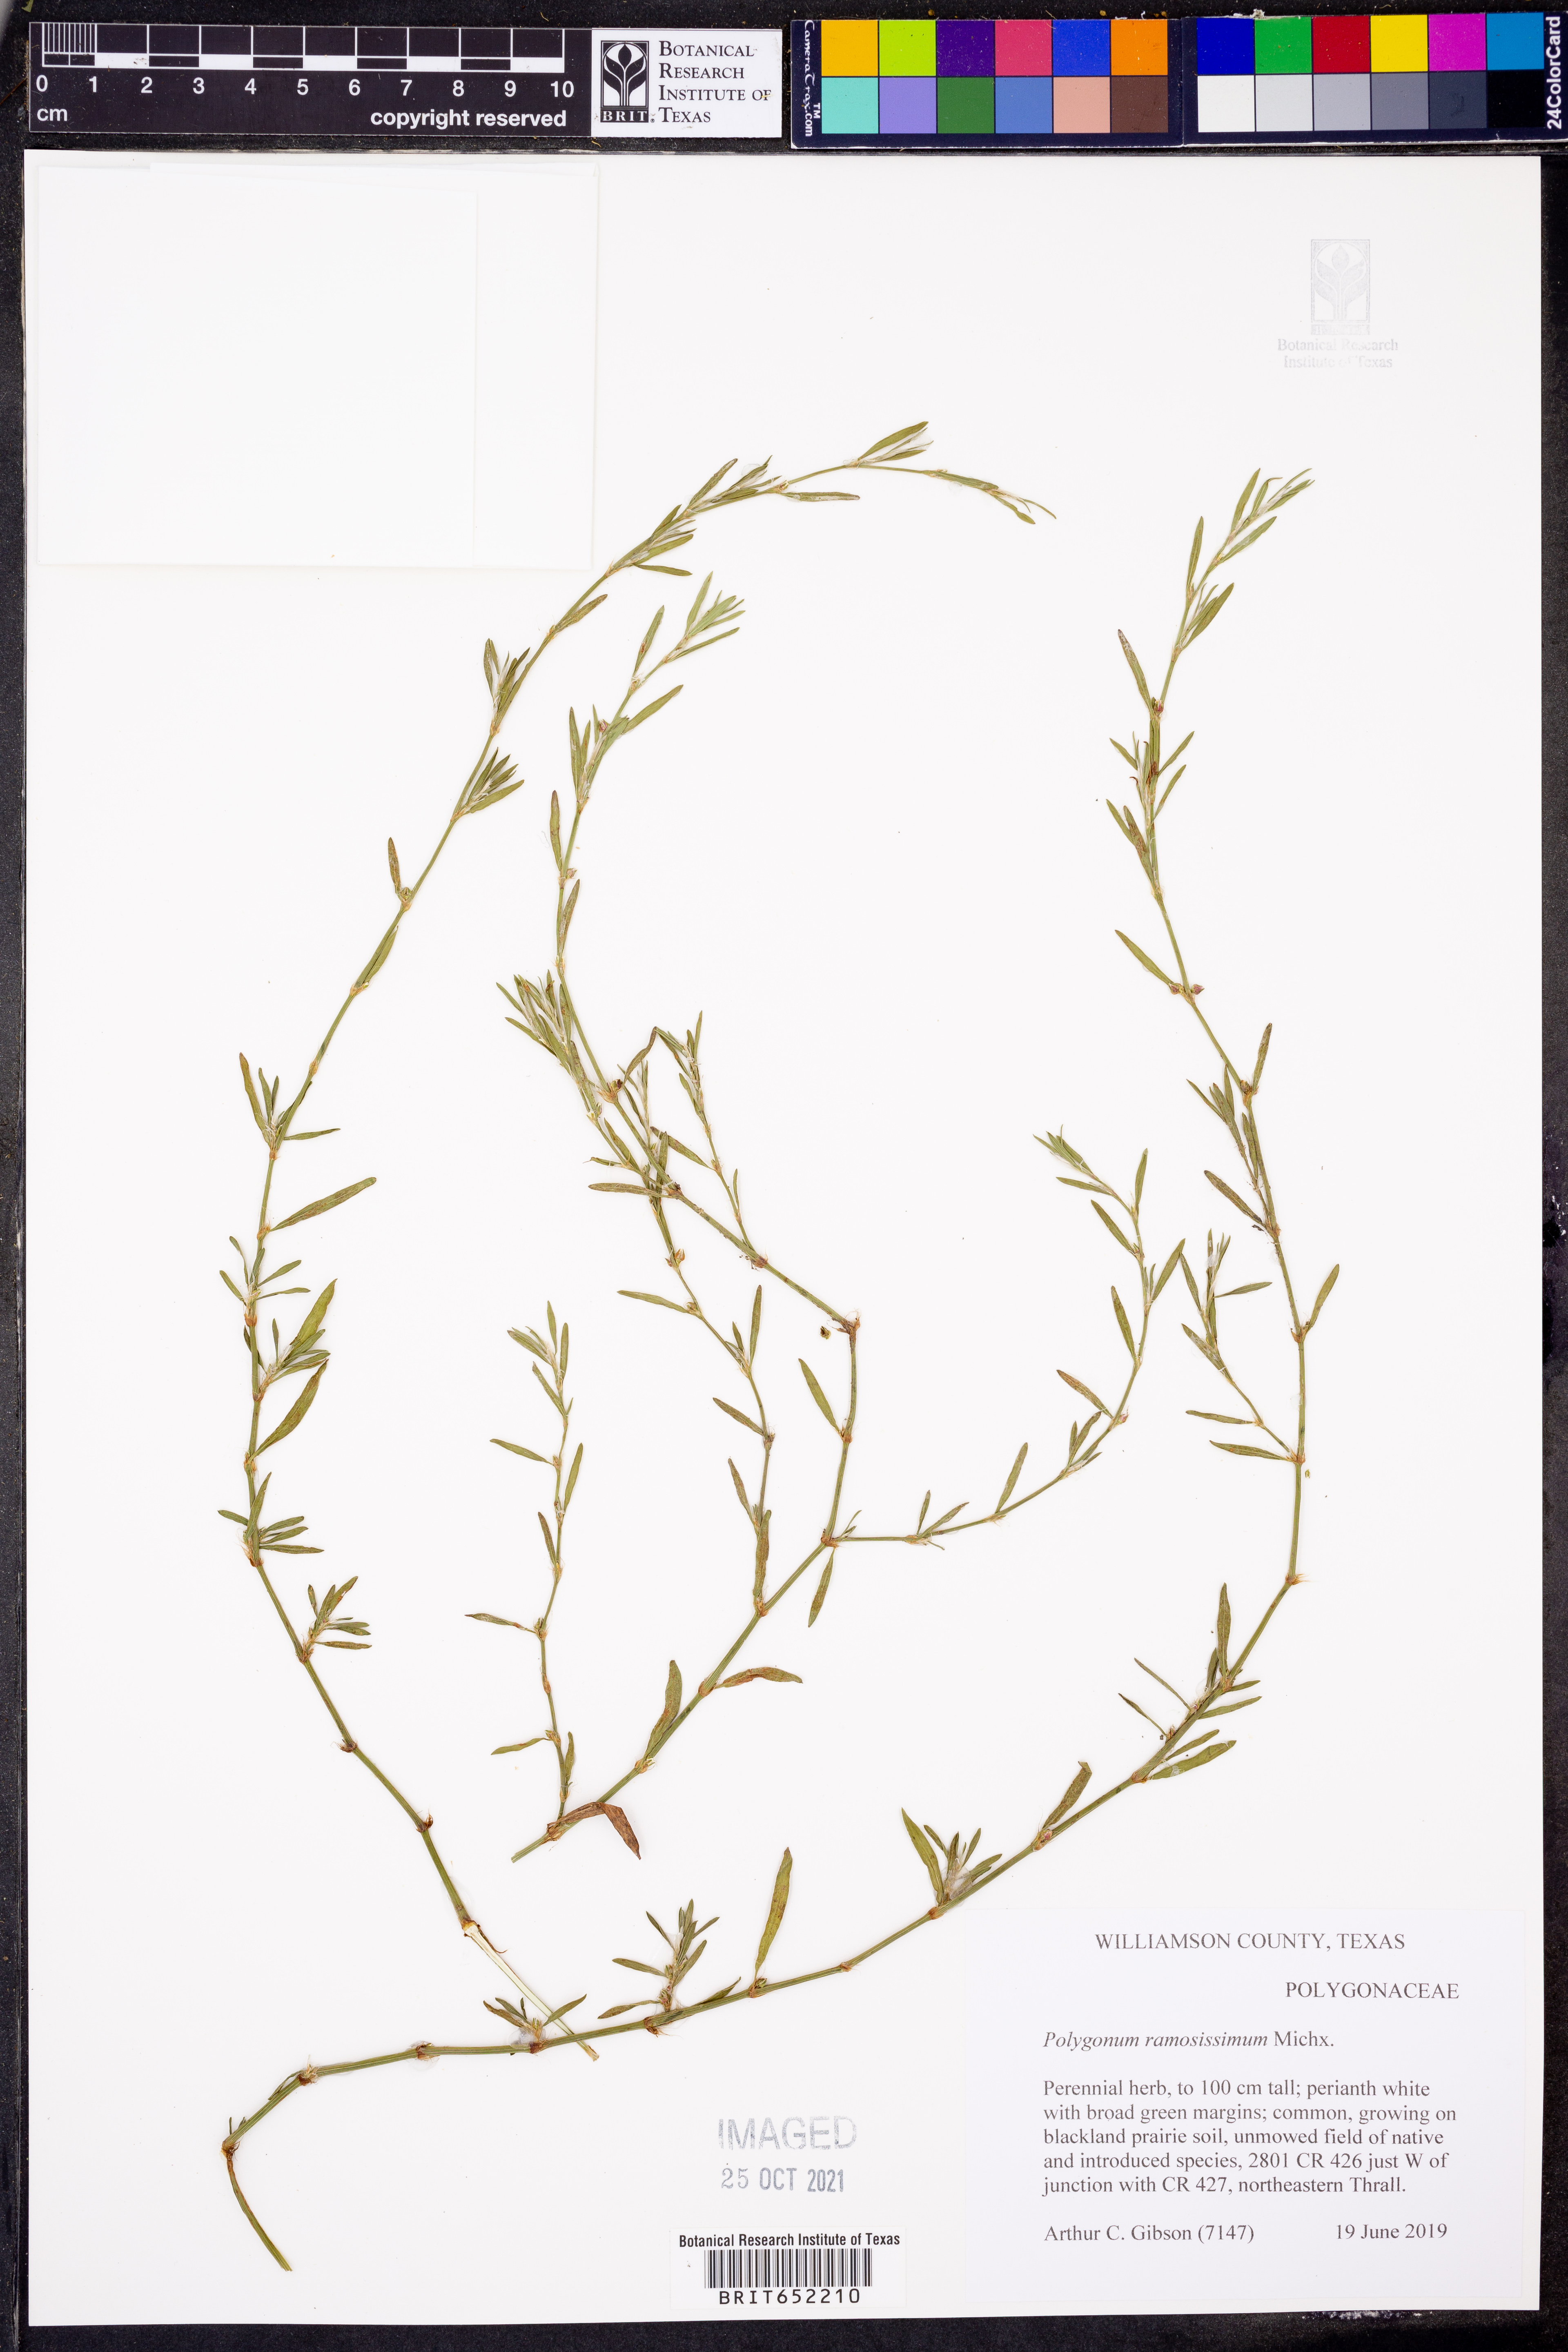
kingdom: Plantae
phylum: Tracheophyta
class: Magnoliopsida
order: Caryophyllales
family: Polygonaceae
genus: Polygonum
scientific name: Polygonum ramosissimum
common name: Bushy knotweed
